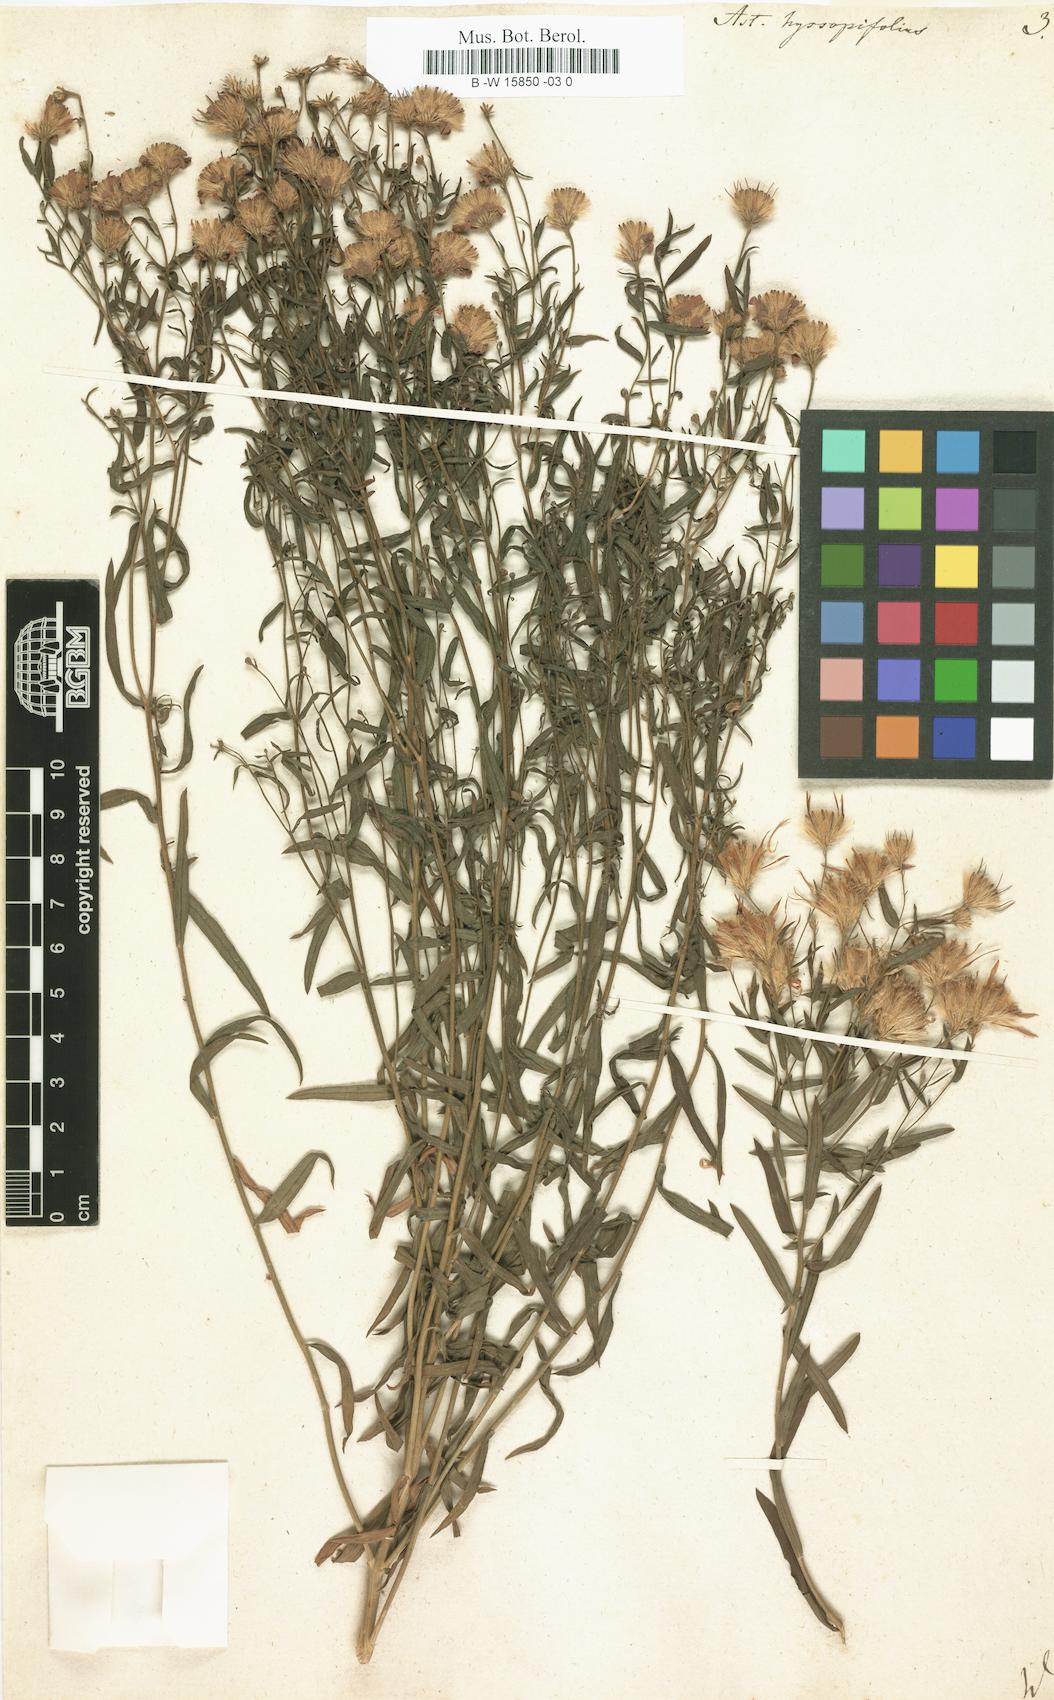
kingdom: Plantae
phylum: Tracheophyta
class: Magnoliopsida
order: Asterales
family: Asteraceae
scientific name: Asteraceae
